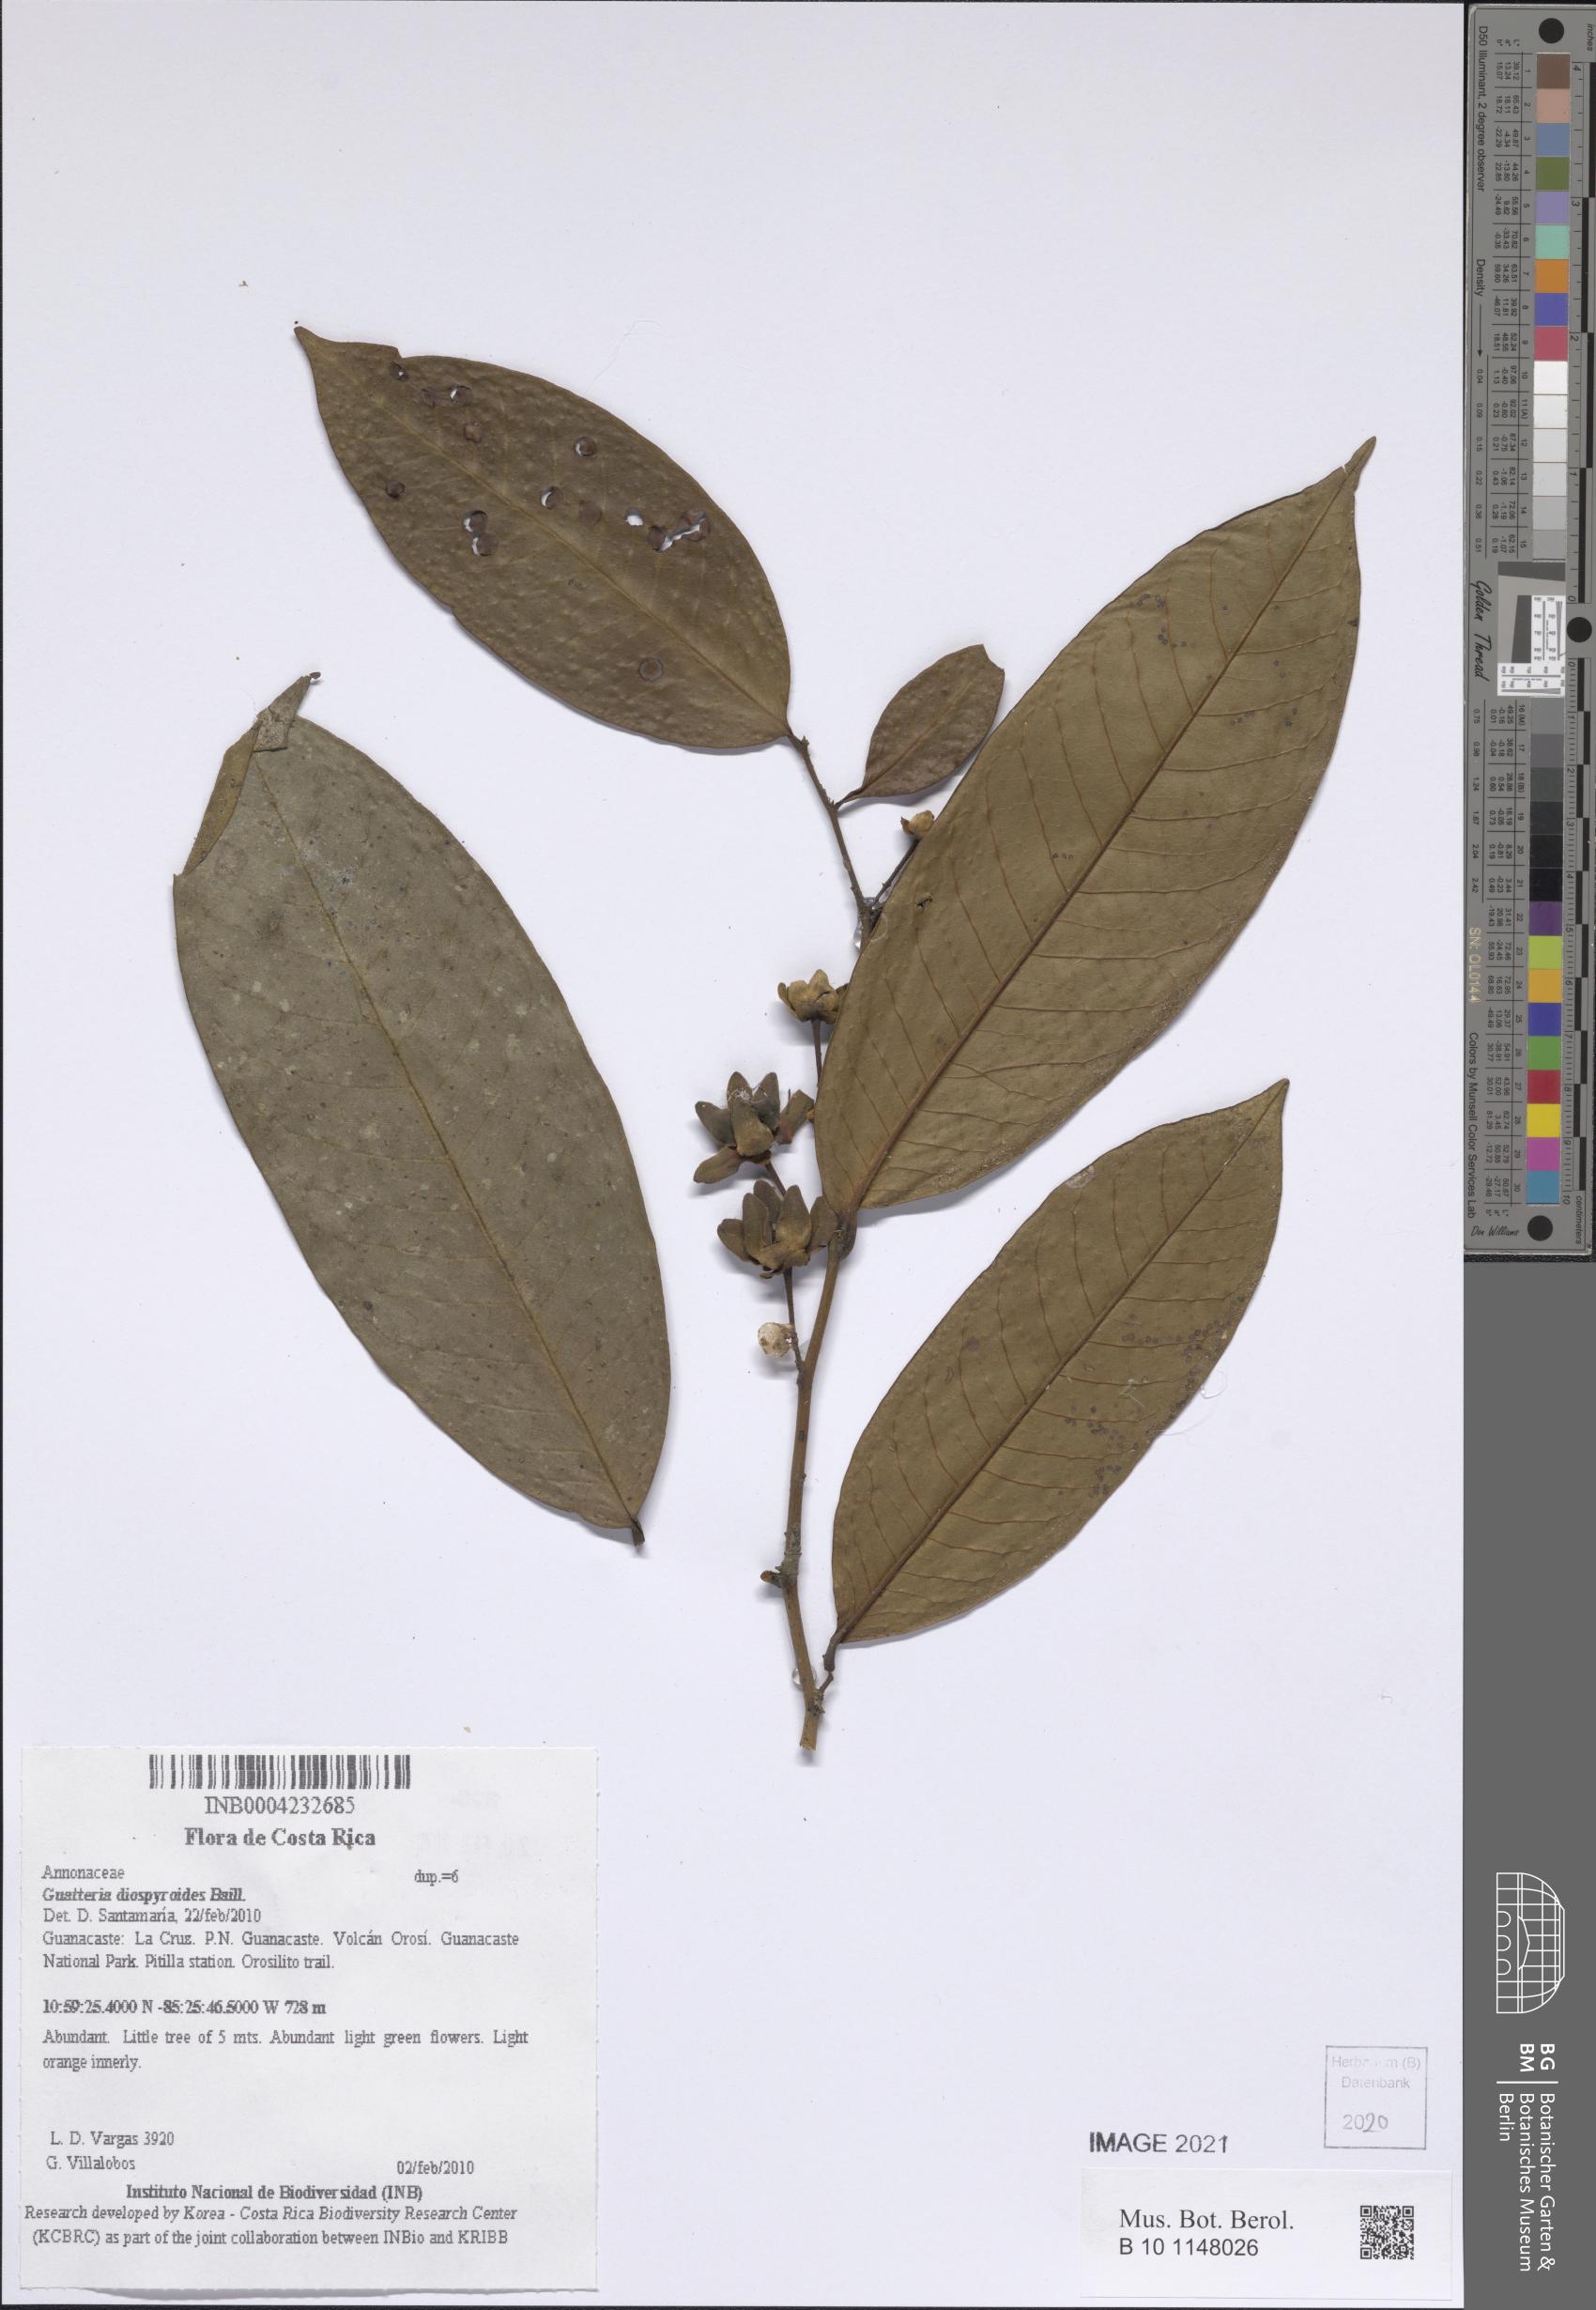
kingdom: Plantae
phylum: Tracheophyta
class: Magnoliopsida
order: Magnoliales
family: Annonaceae
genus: Guatteria
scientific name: Guatteria diospyroides
